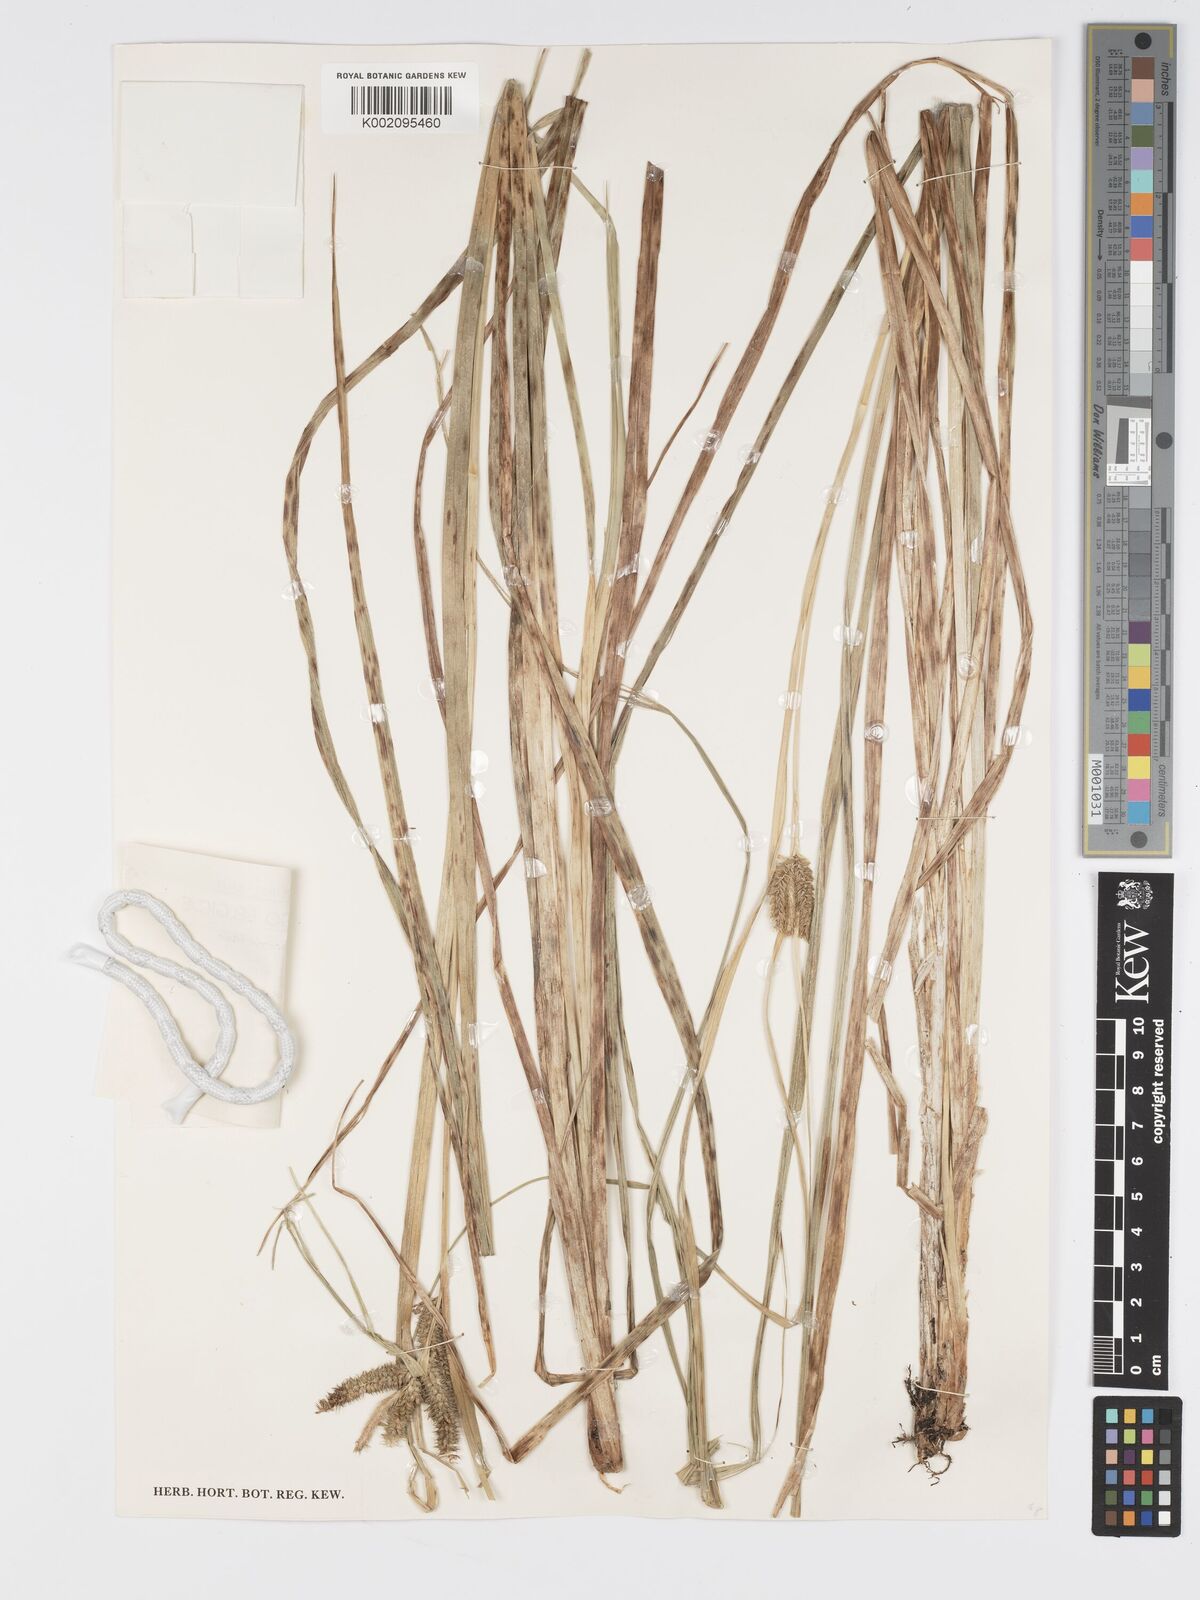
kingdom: Plantae
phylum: Tracheophyta
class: Liliopsida
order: Poales
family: Cyperaceae
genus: Carex
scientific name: Carex congolensis
